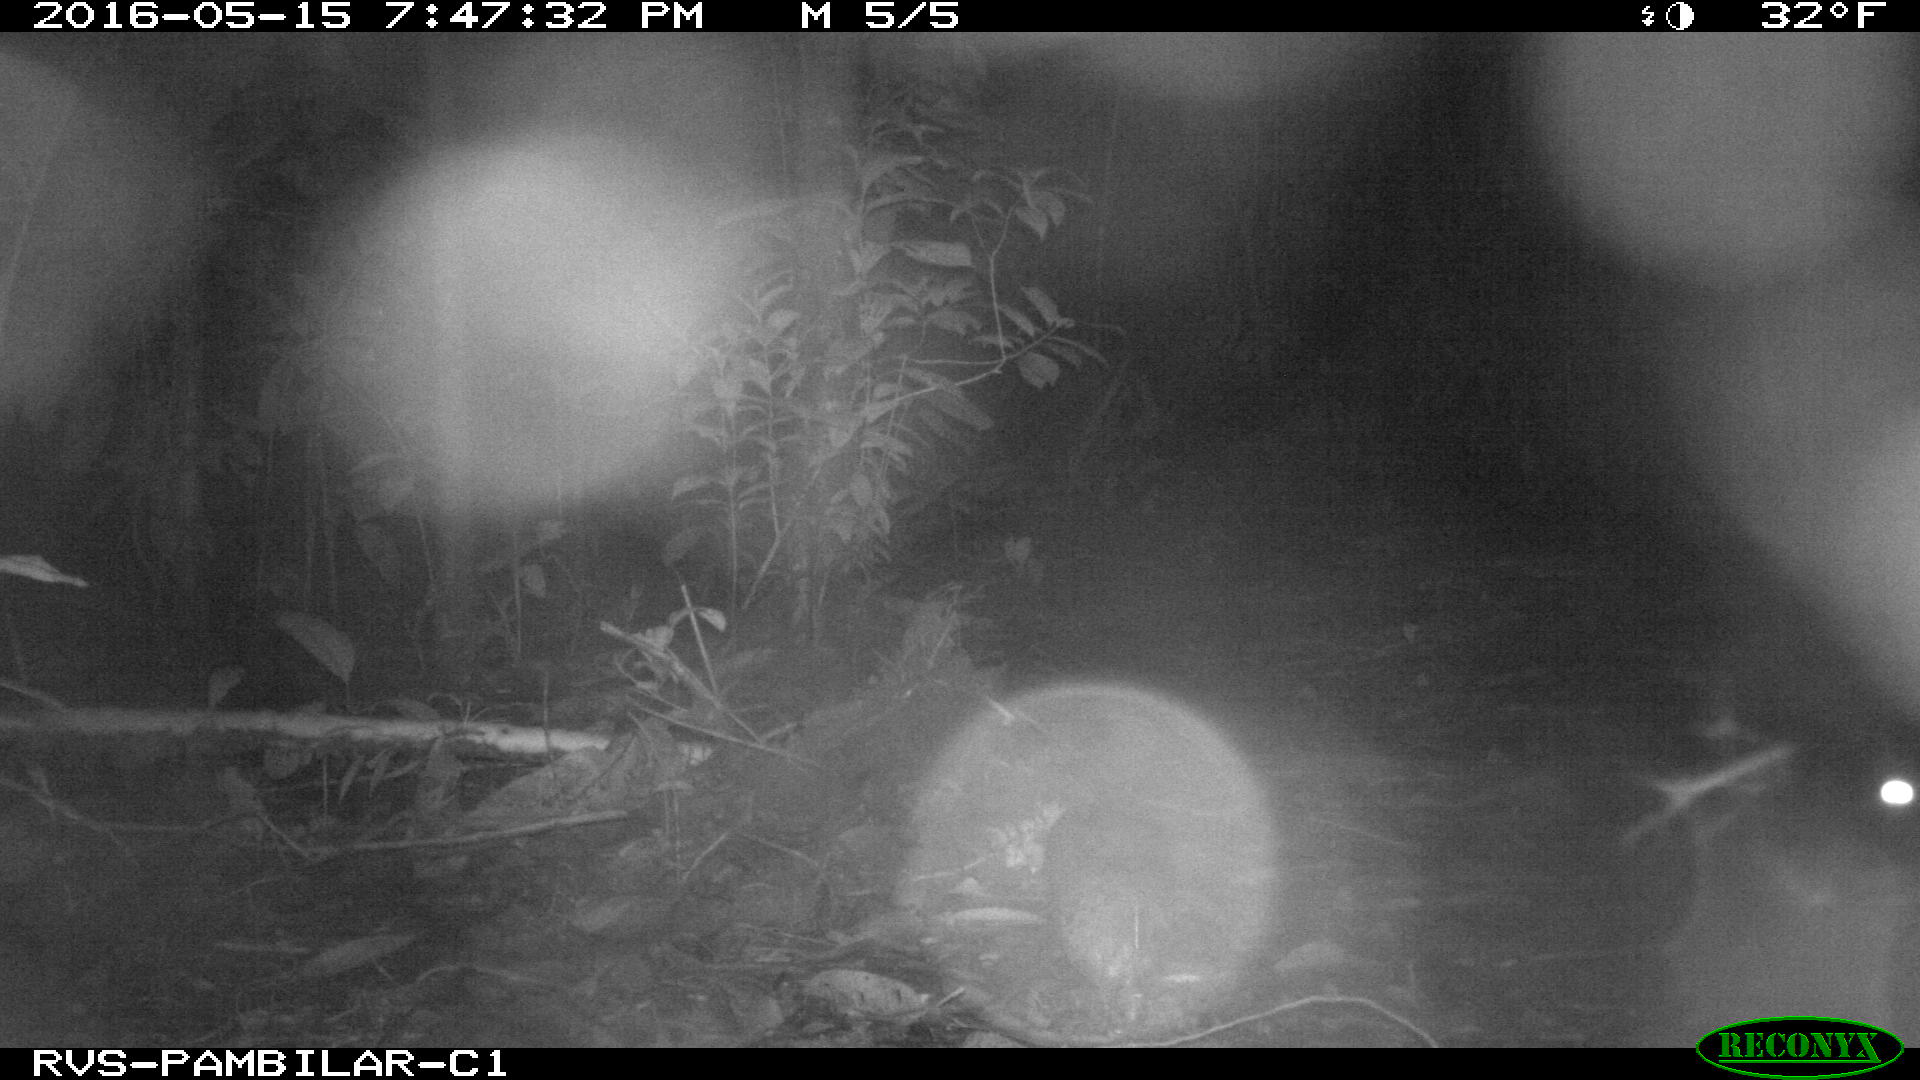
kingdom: Animalia
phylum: Chordata
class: Mammalia
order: Rodentia
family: Cuniculidae
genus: Cuniculus
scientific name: Cuniculus paca
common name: Lowland paca
